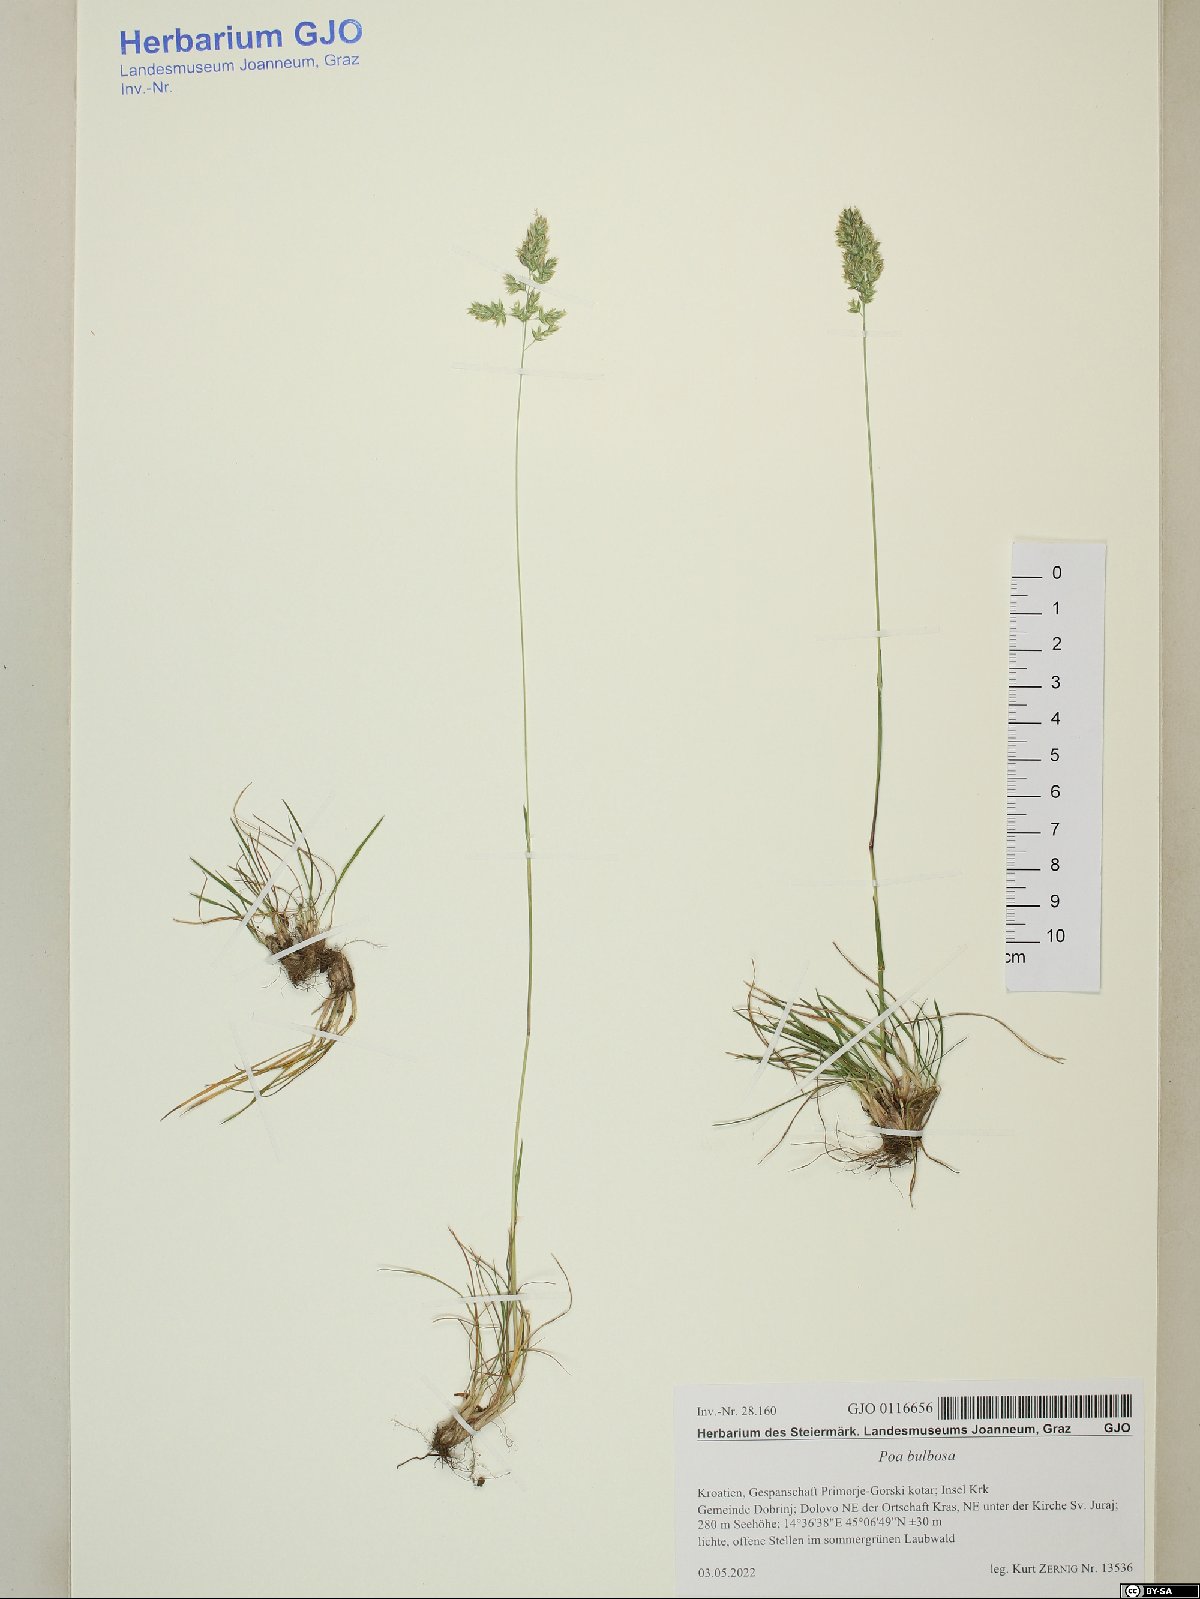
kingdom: Plantae
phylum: Tracheophyta
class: Liliopsida
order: Poales
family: Poaceae
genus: Poa
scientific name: Poa bulbosa
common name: Bulbous bluegrass
